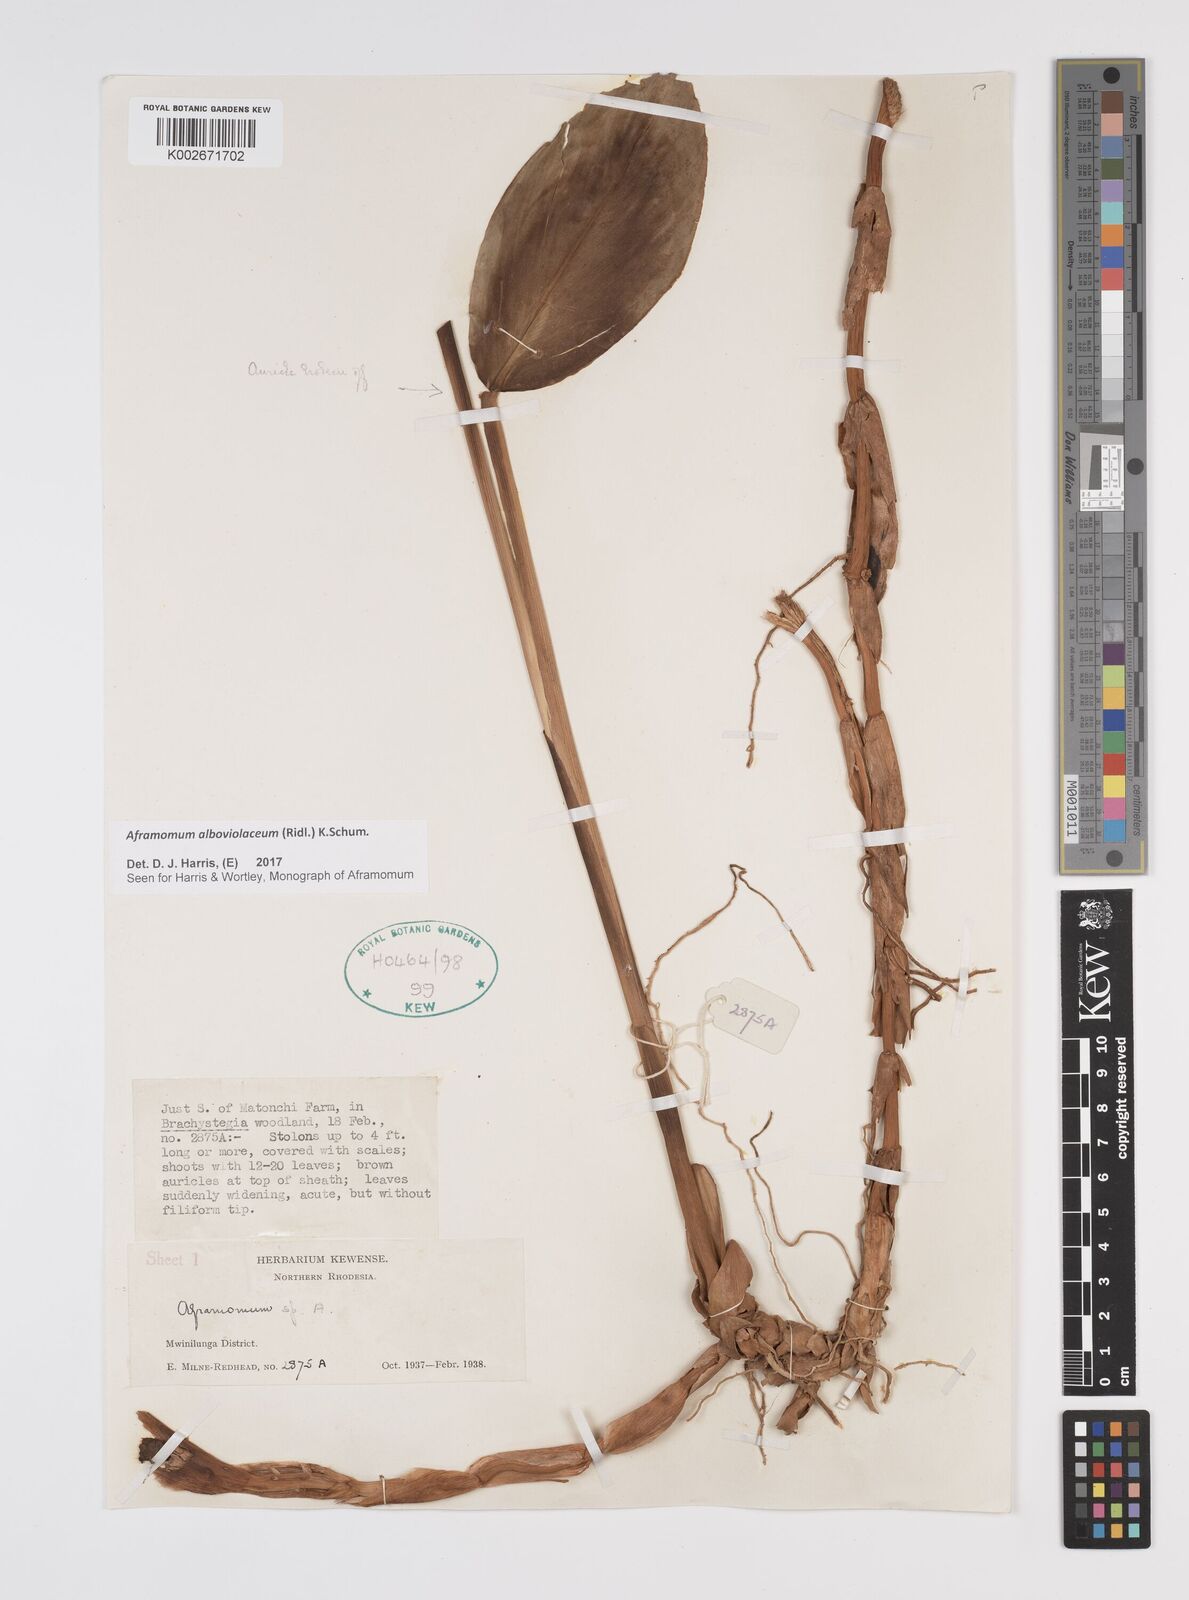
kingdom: Plantae
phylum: Tracheophyta
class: Liliopsida
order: Zingiberales
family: Zingiberaceae
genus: Aframomum
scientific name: Aframomum alboviolaceum
